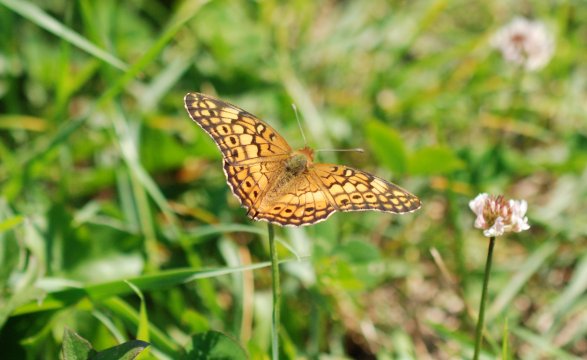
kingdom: Animalia
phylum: Arthropoda
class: Insecta
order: Lepidoptera
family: Nymphalidae
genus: Euptoieta
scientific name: Euptoieta claudia
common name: Variegated Fritillary
